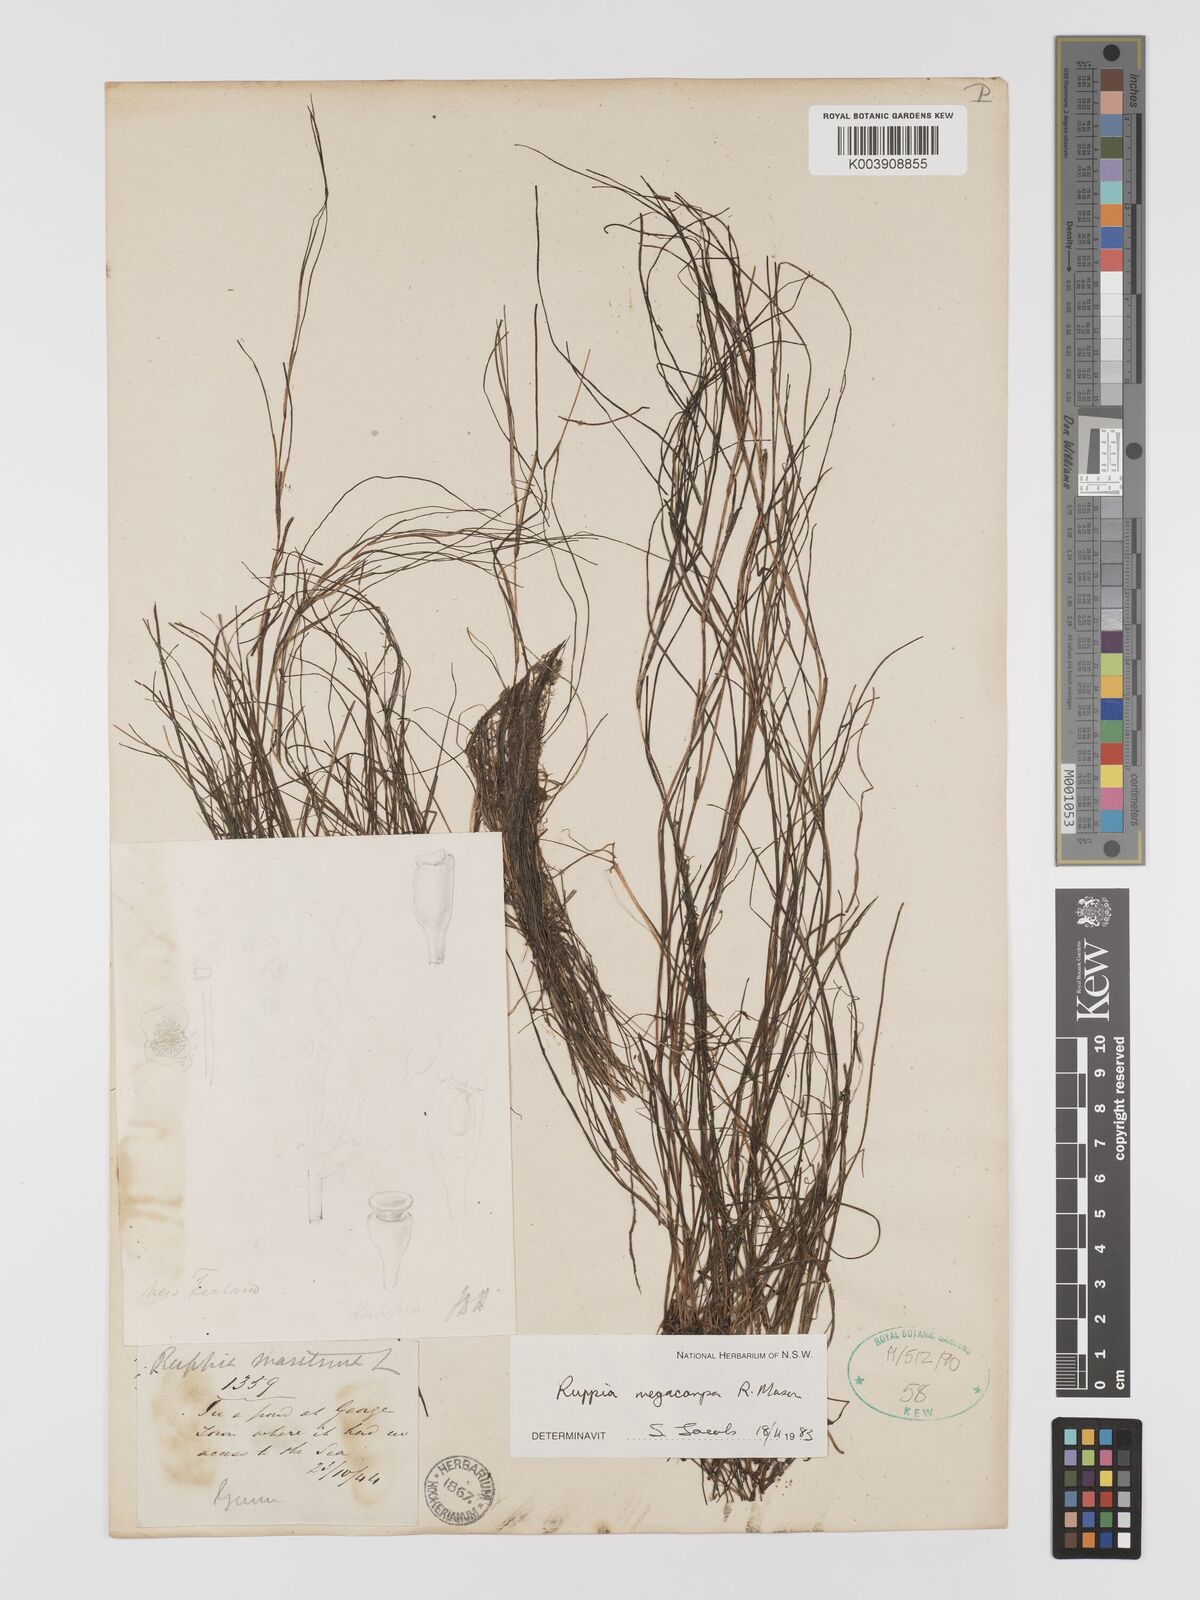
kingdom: Plantae
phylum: Tracheophyta
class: Liliopsida
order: Alismatales
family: Ruppiaceae
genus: Ruppia
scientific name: Ruppia megacarpa
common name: Large-fruit seatassel
